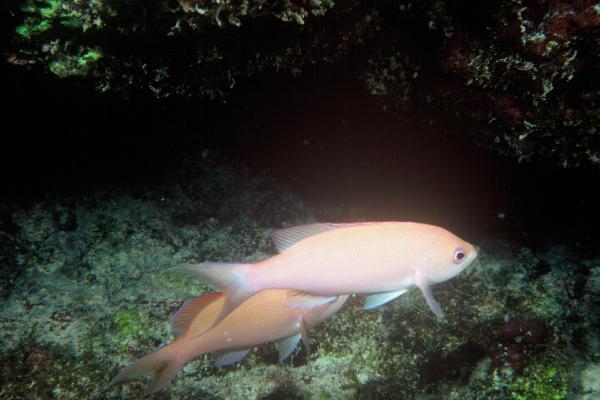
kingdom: Animalia
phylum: Chordata
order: Perciformes
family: Serranidae
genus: Pseudanthias
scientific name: Pseudanthias thompsoni
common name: Fairy bass
